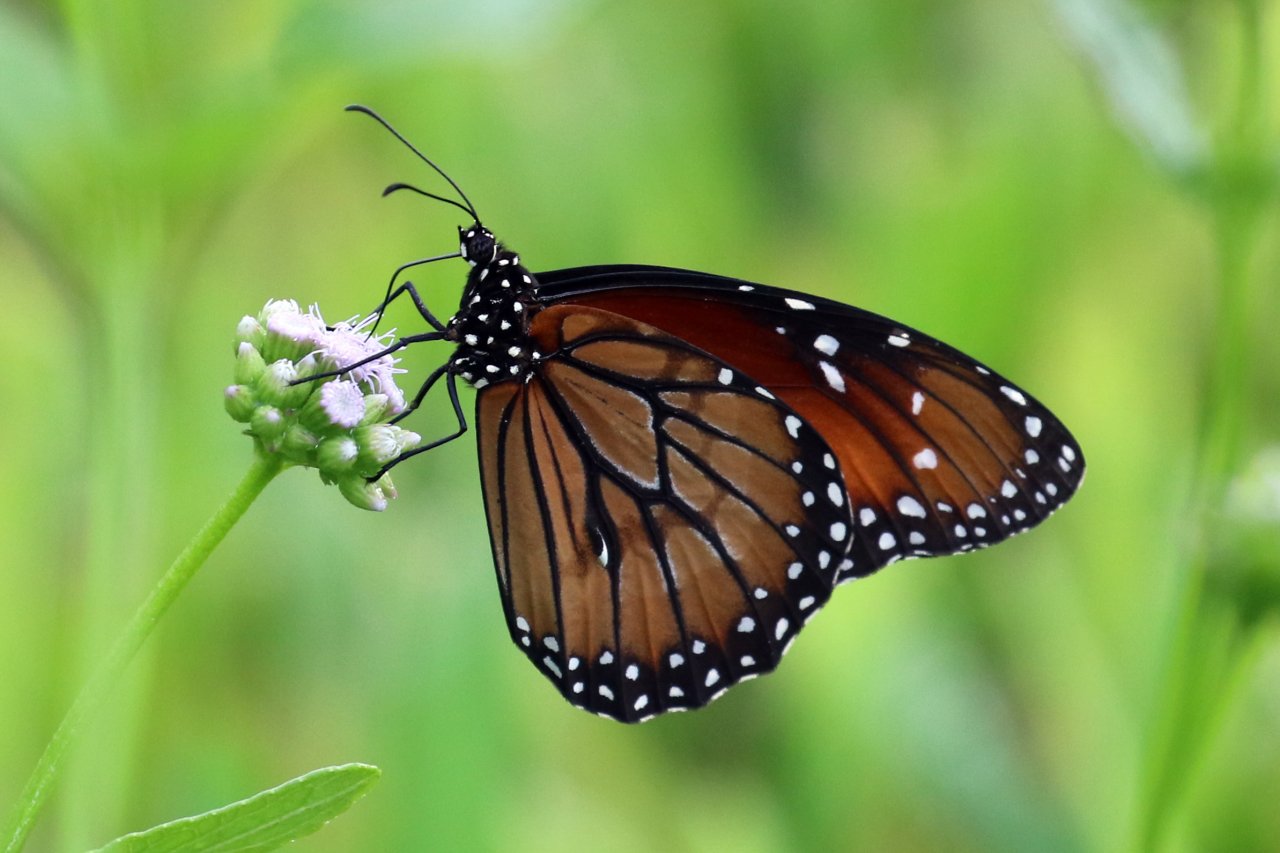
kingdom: Animalia
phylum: Arthropoda
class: Insecta
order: Lepidoptera
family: Nymphalidae
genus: Danaus
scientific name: Danaus eresimus
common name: Soldier
